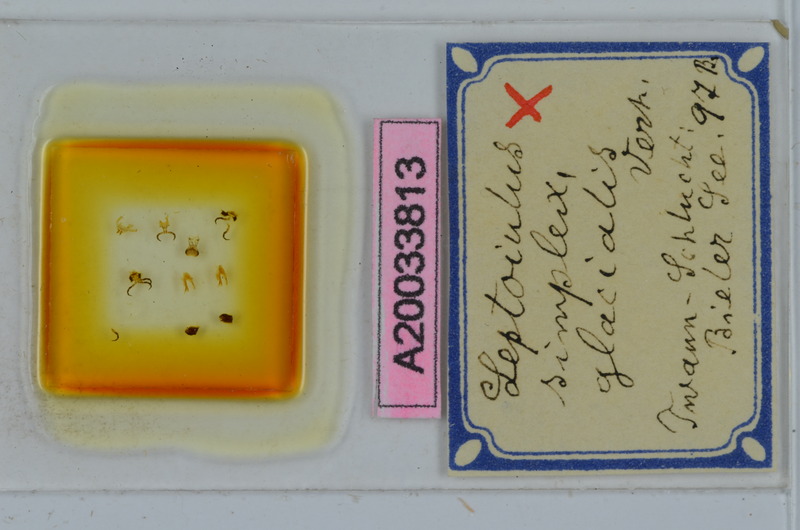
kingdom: Animalia
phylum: Arthropoda
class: Diplopoda
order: Julida
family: Julidae
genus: Leptoiulus
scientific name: Leptoiulus simplex
